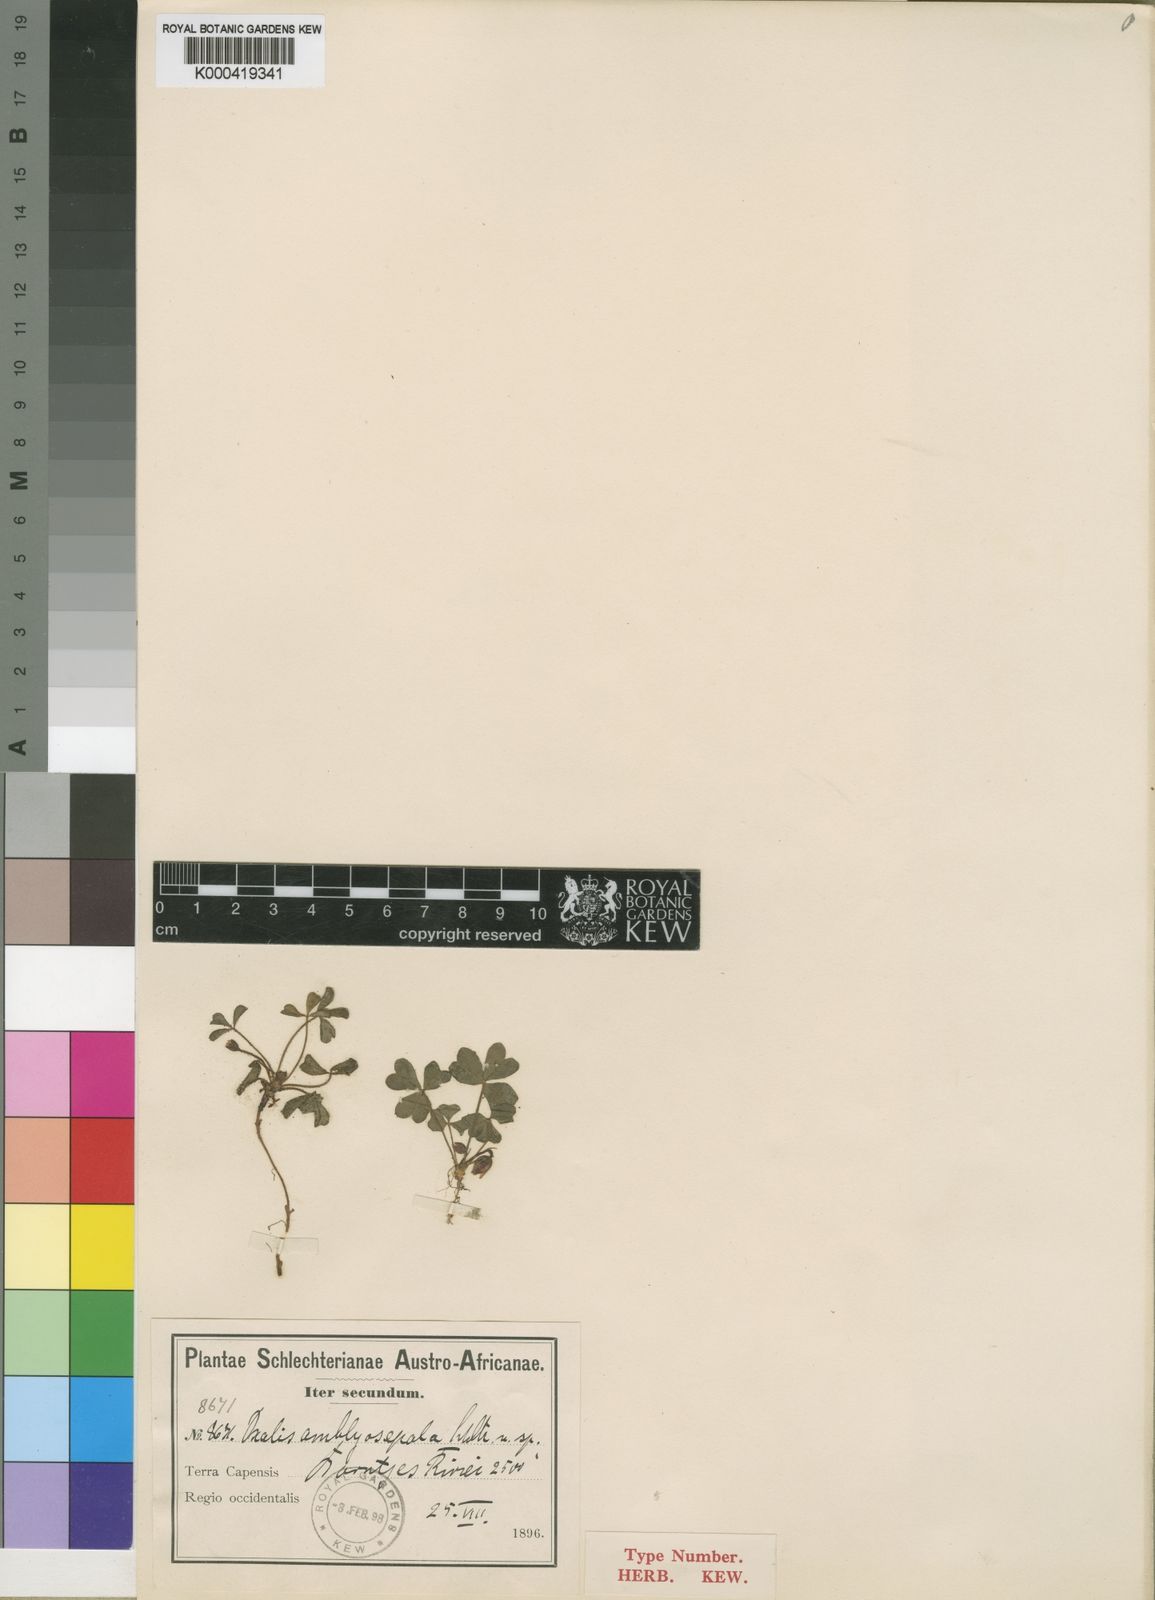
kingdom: Plantae
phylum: Tracheophyta
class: Magnoliopsida
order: Oxalidales
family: Oxalidaceae
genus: Oxalis
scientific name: Oxalis amblyosepala
